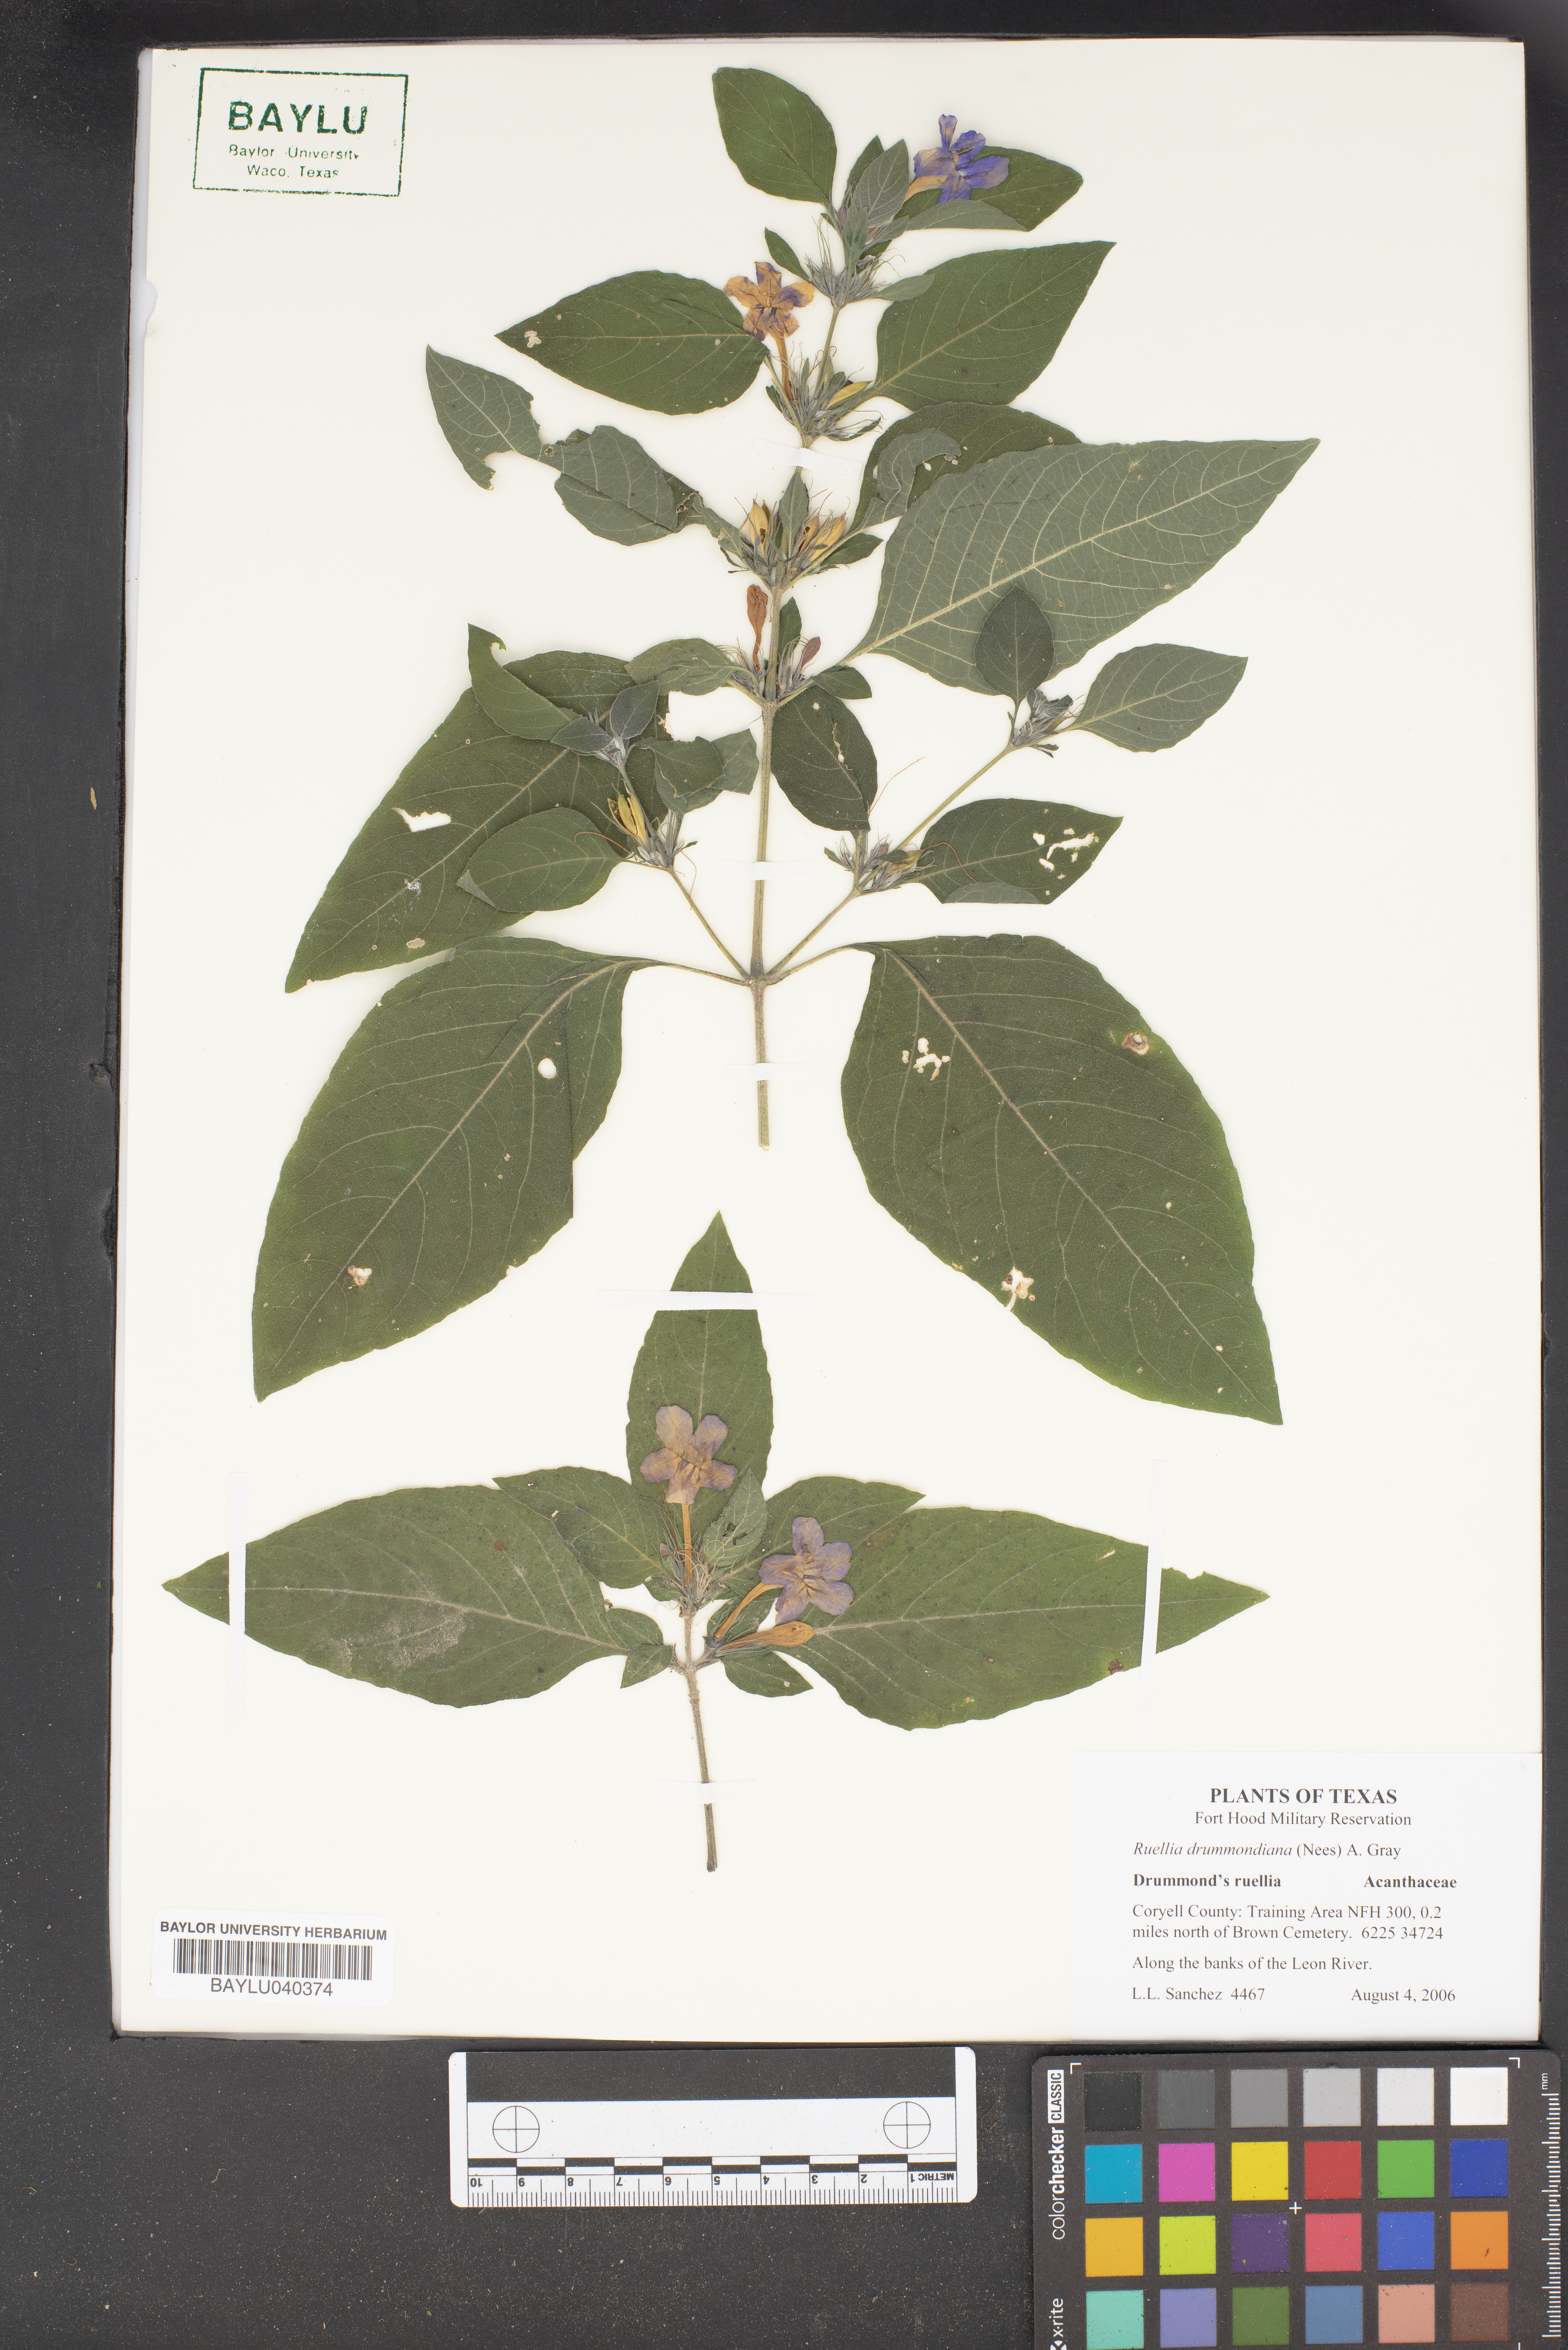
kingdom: Plantae
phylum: Tracheophyta
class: Magnoliopsida
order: Lamiales
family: Acanthaceae
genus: Ruellia
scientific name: Ruellia drummondiana
